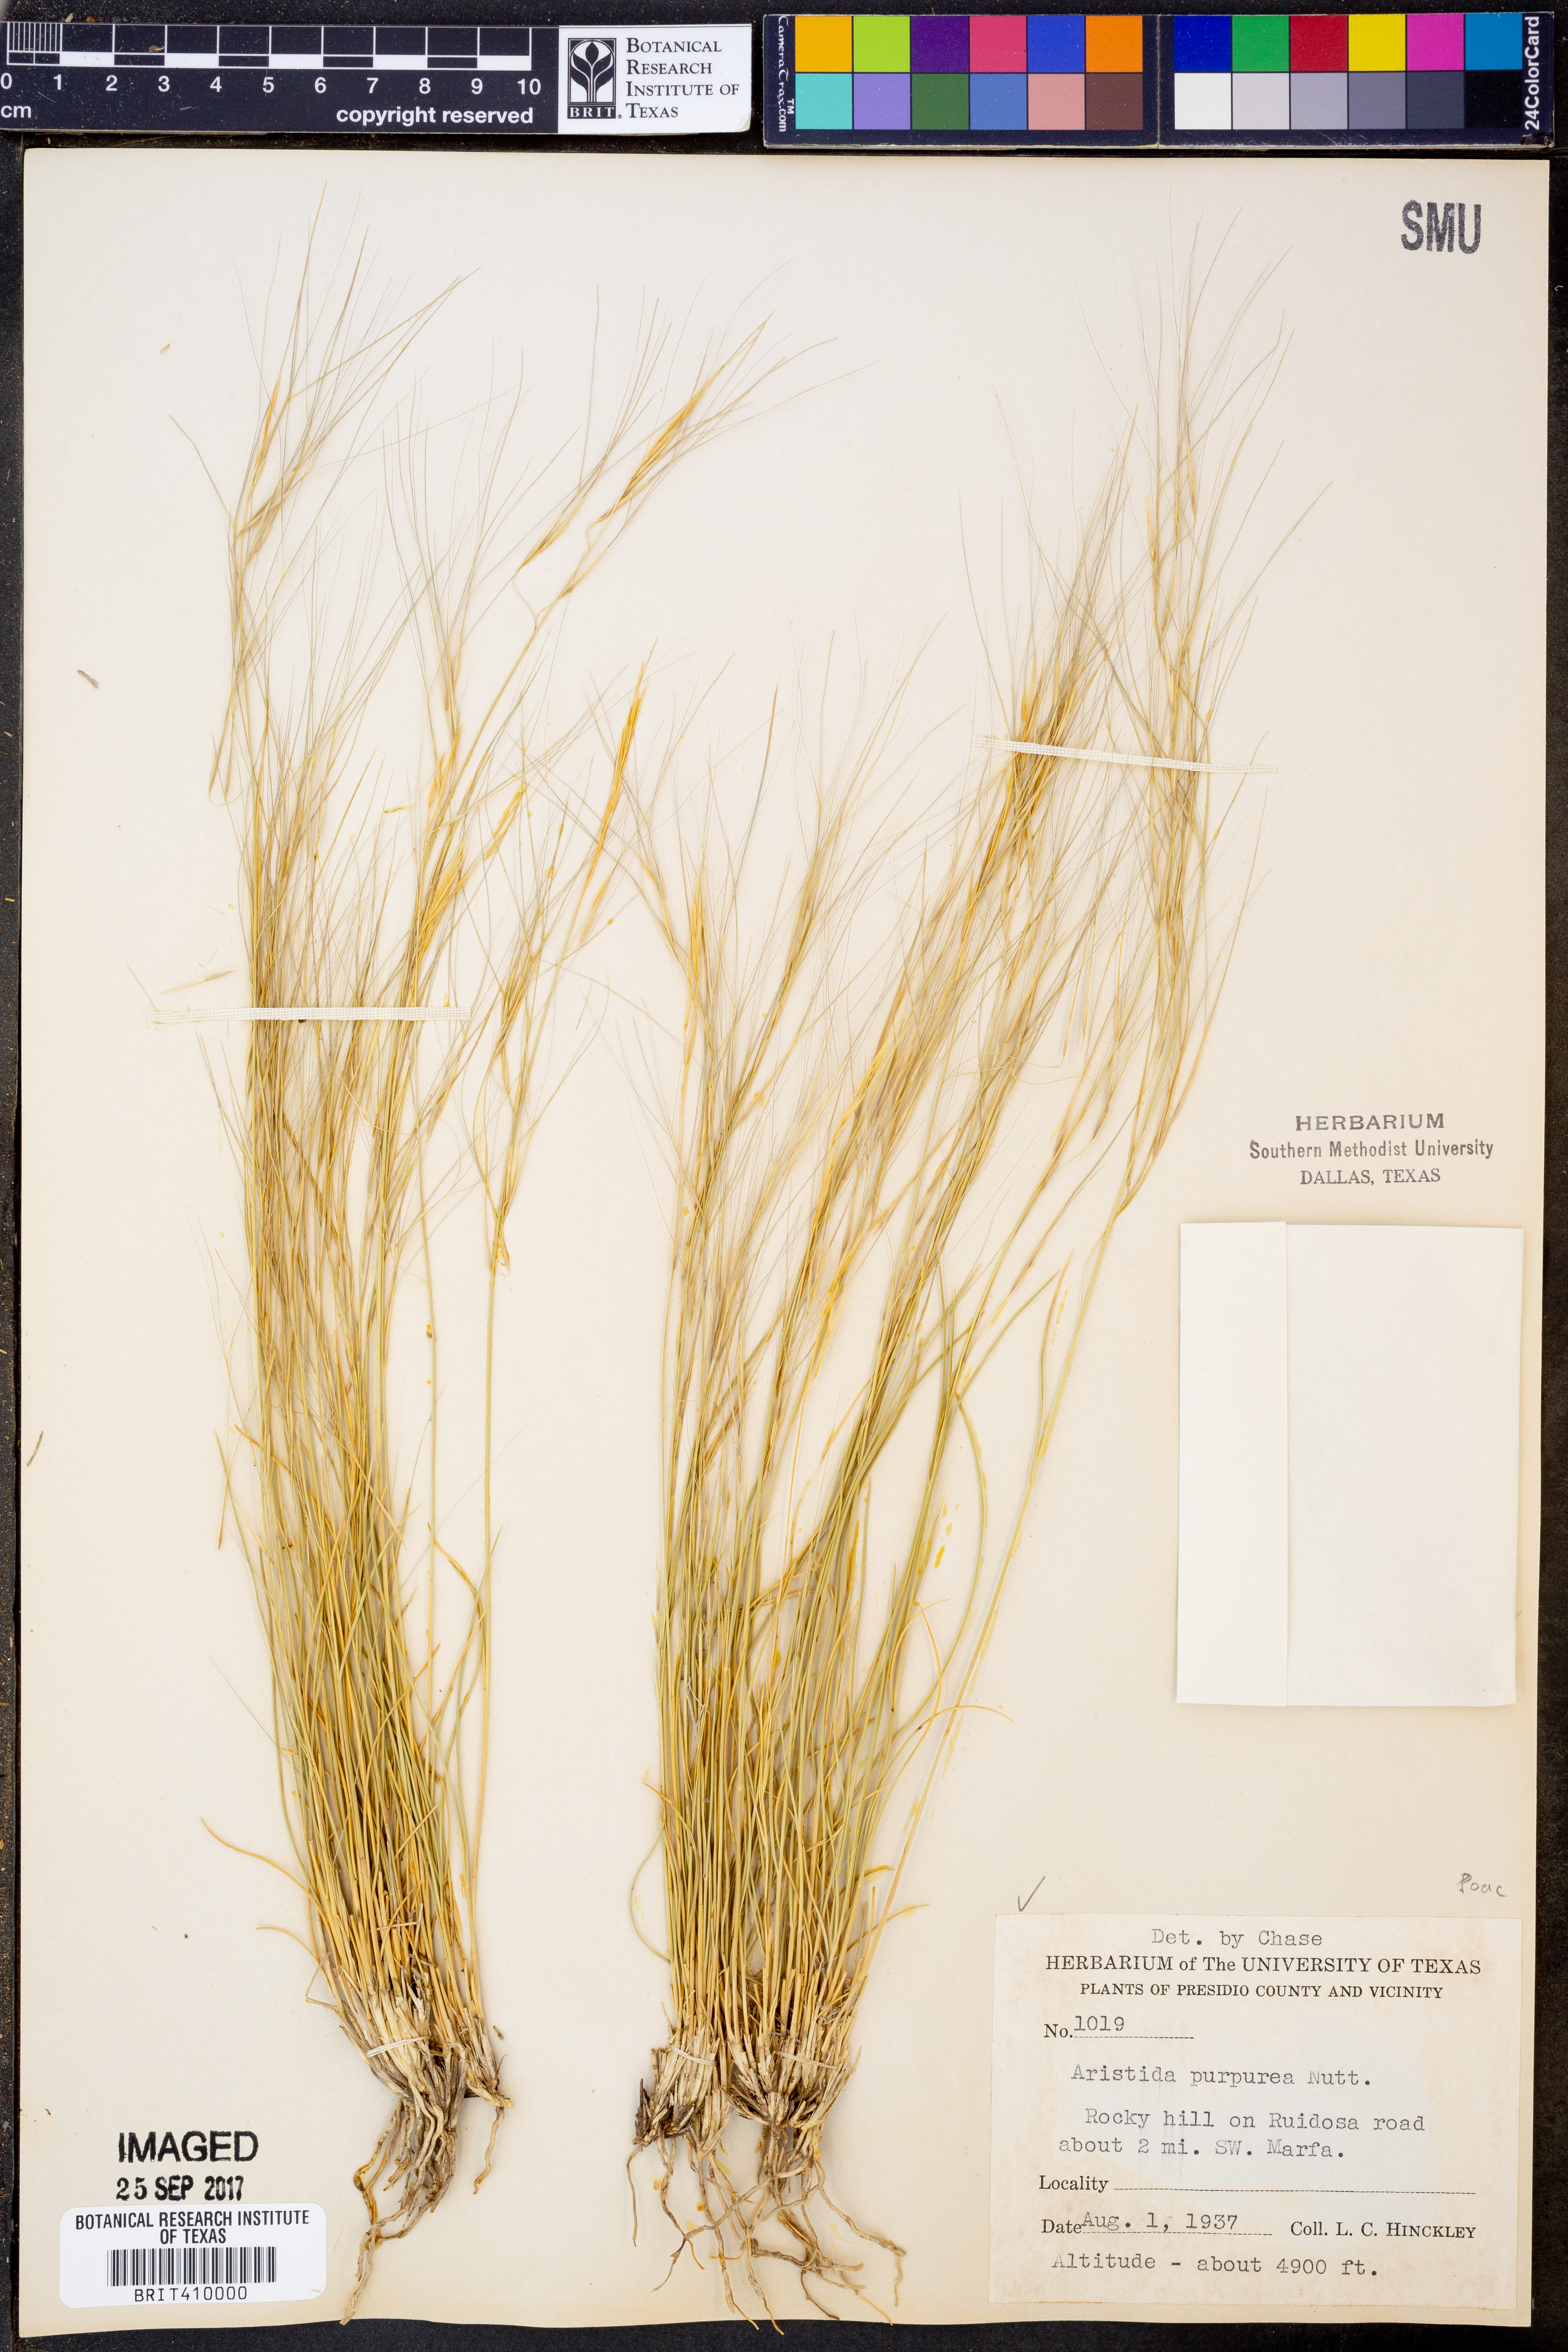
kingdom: Plantae
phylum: Tracheophyta
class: Liliopsida
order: Poales
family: Poaceae
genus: Aristida
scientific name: Aristida purpurea
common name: Purple threeawn
